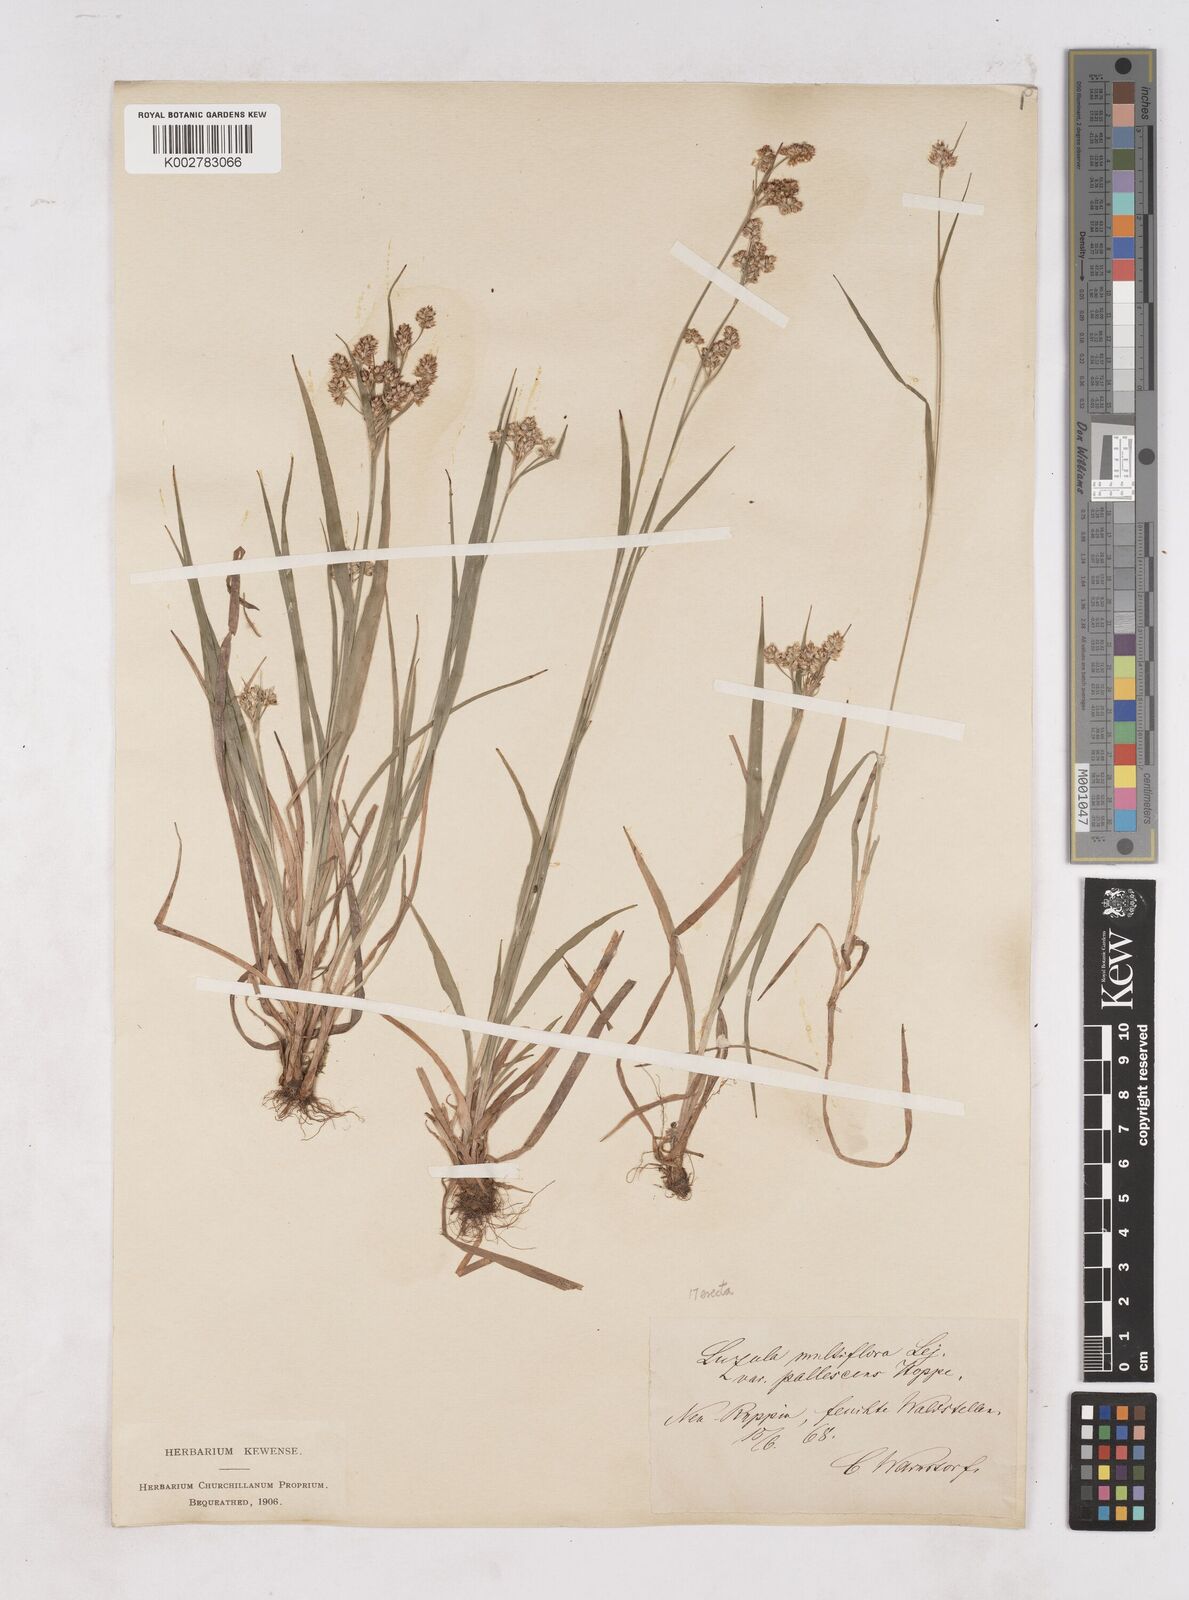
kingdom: Plantae
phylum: Tracheophyta
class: Liliopsida
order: Poales
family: Juncaceae
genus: Luzula
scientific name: Luzula pallescens
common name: Fen wood-rush
